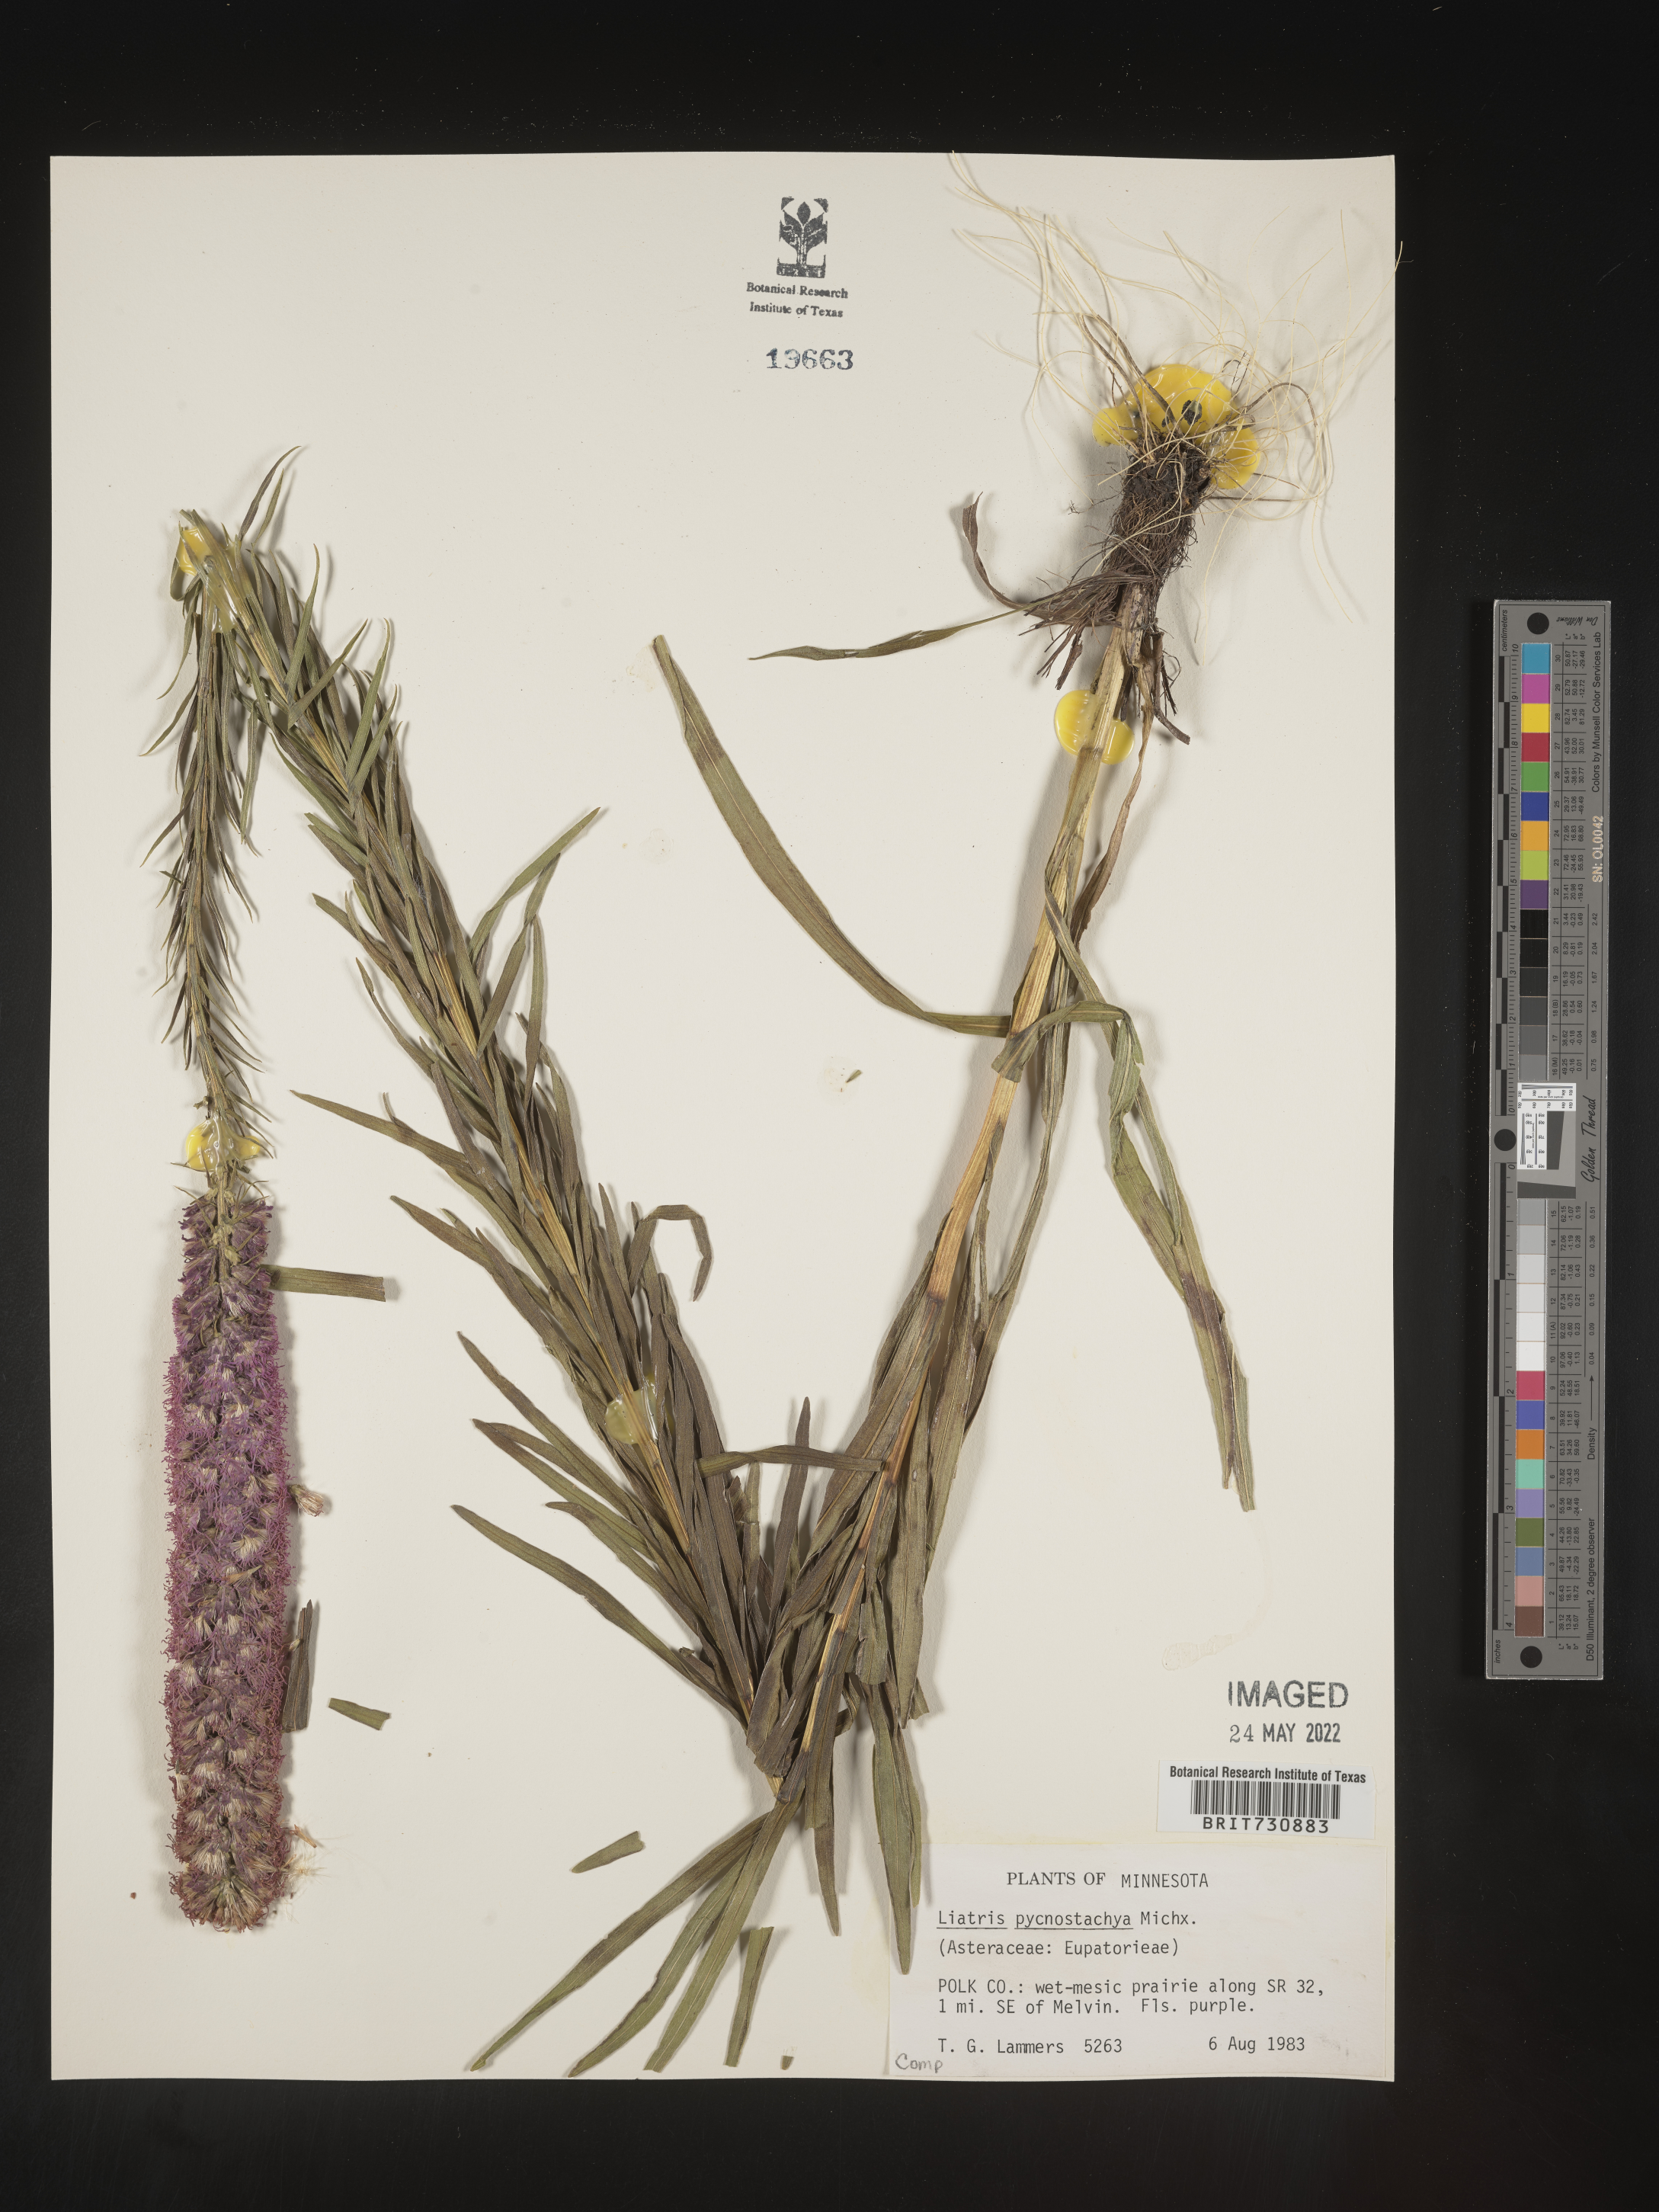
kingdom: Plantae
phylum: Tracheophyta
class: Magnoliopsida
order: Asterales
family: Asteraceae
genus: Liatris
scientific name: Liatris pycnostachya
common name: Cattail gayfeather
